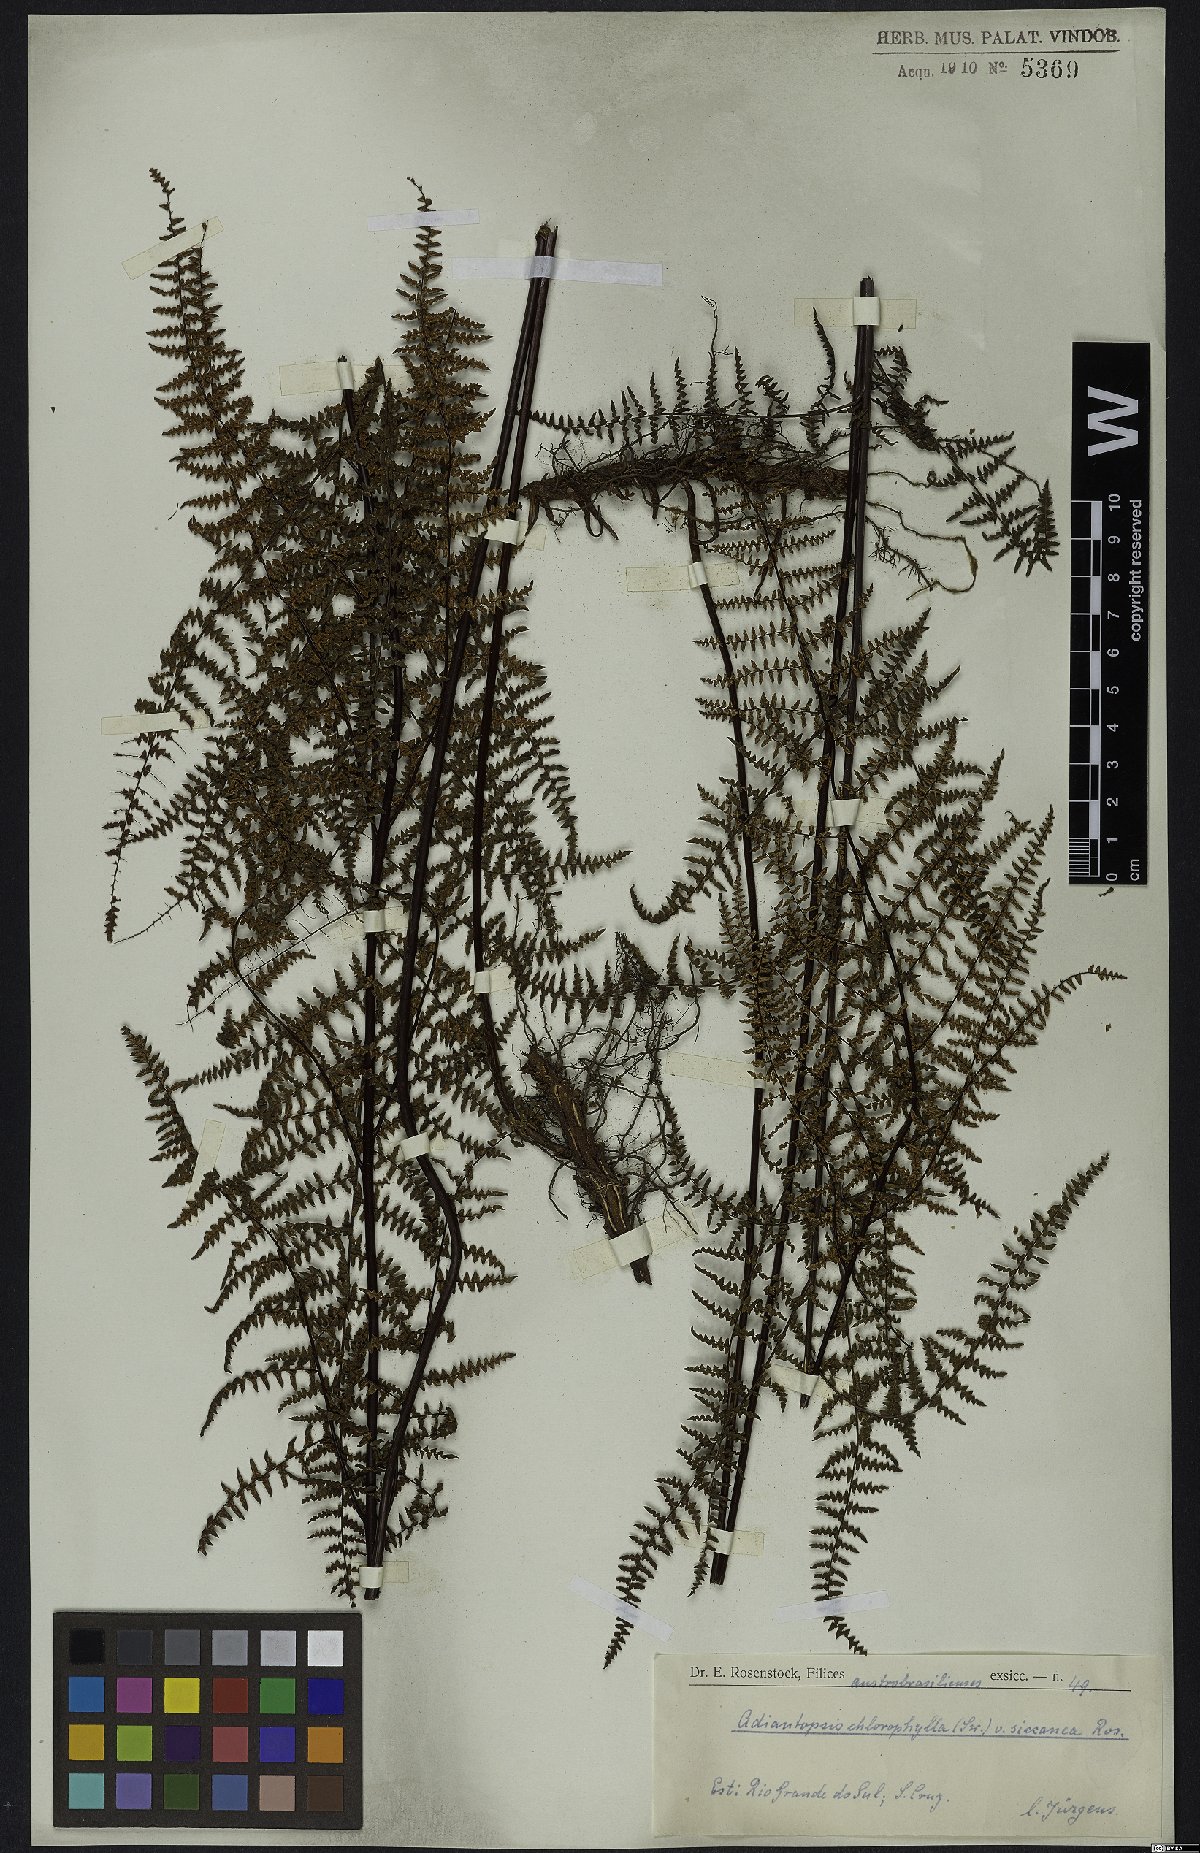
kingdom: Plantae
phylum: Tracheophyta
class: Polypodiopsida
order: Polypodiales
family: Pteridaceae
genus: Adiantopsis
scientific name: Adiantopsis chlorophylla
